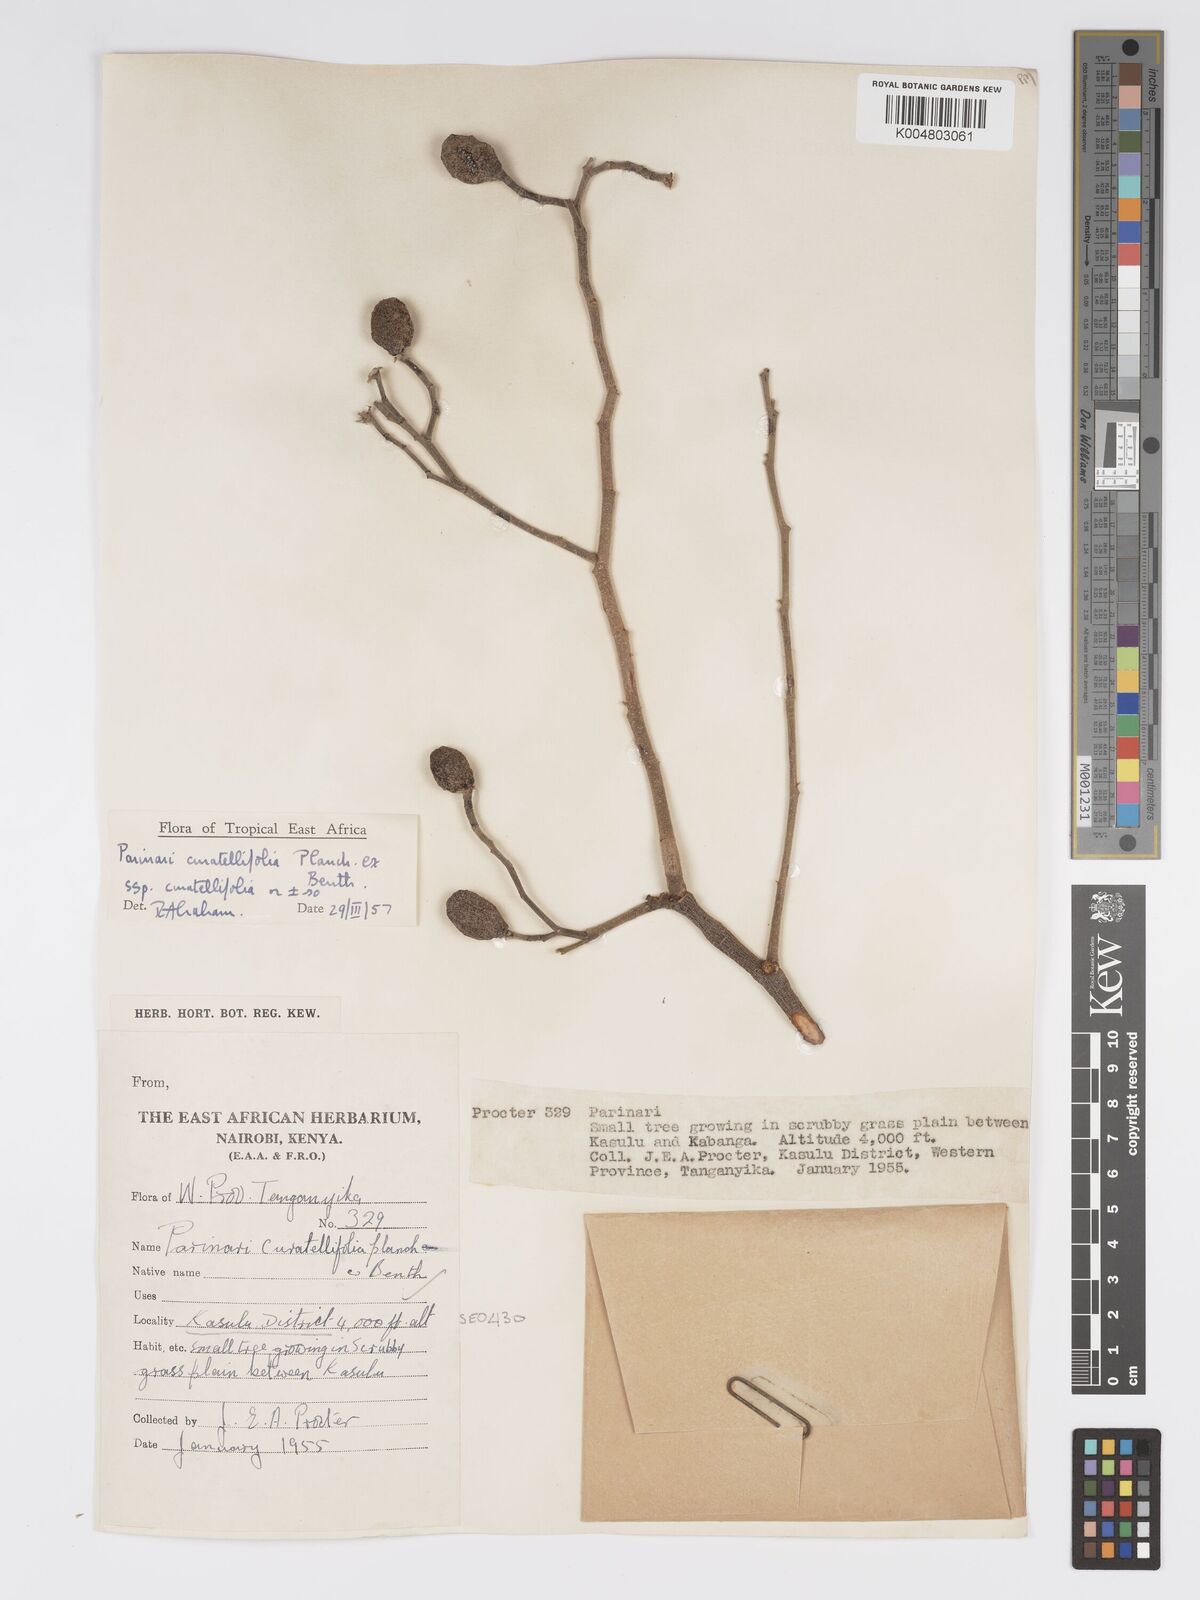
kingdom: Plantae
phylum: Tracheophyta
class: Magnoliopsida
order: Malpighiales
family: Chrysobalanaceae
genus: Parinari
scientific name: Parinari curatellifolia
